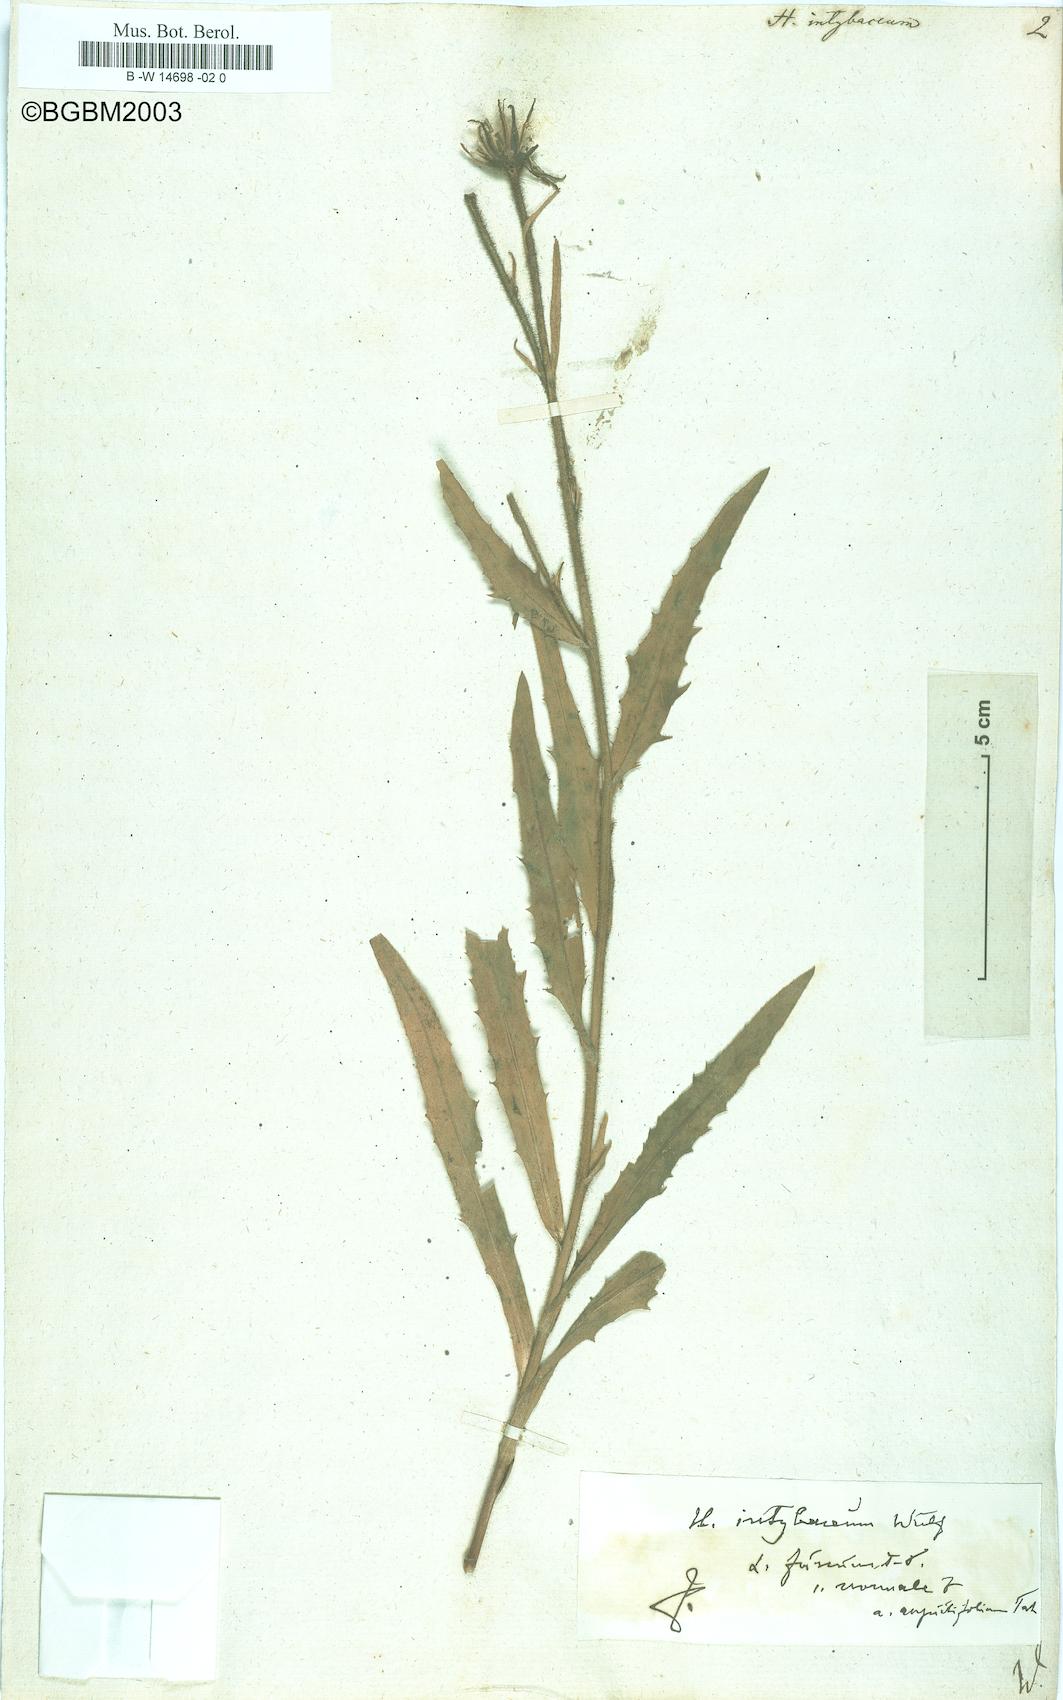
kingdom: Plantae
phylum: Tracheophyta
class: Magnoliopsida
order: Asterales
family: Asteraceae
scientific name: Asteraceae
